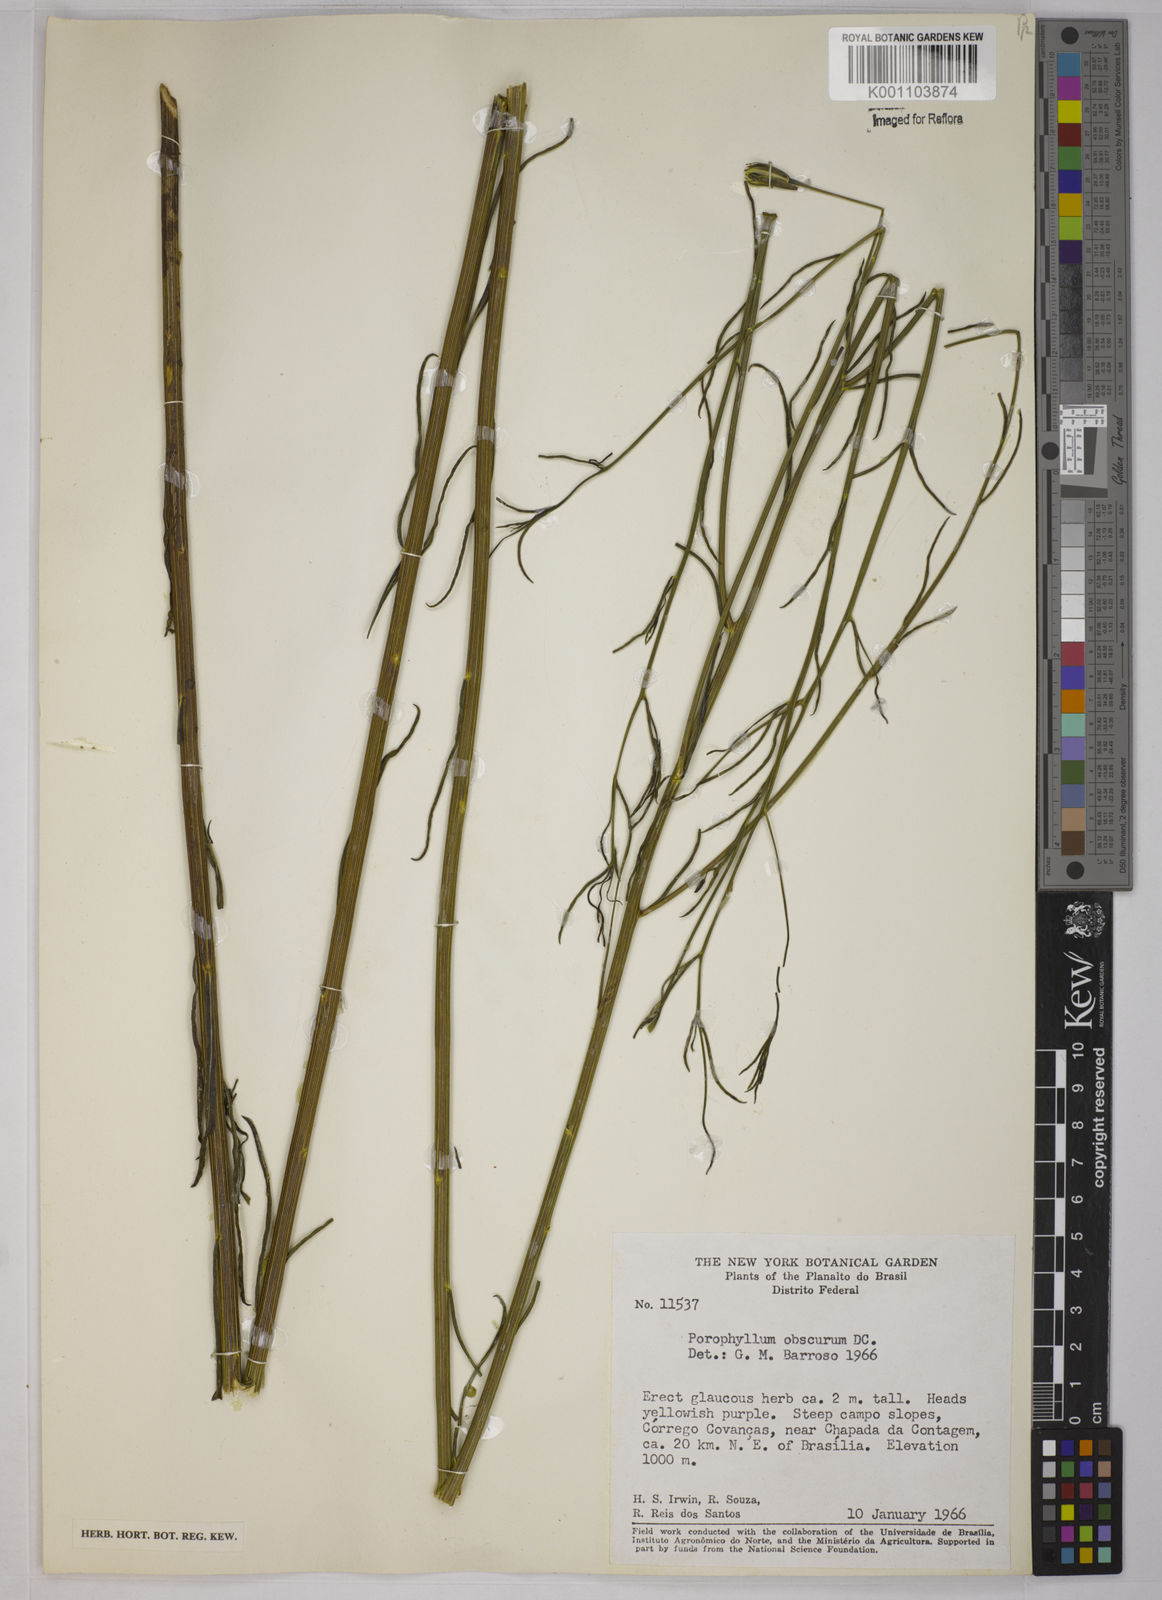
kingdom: Plantae
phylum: Tracheophyta
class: Magnoliopsida
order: Asterales
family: Asteraceae
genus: Porophyllum
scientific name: Porophyllum obscurum
